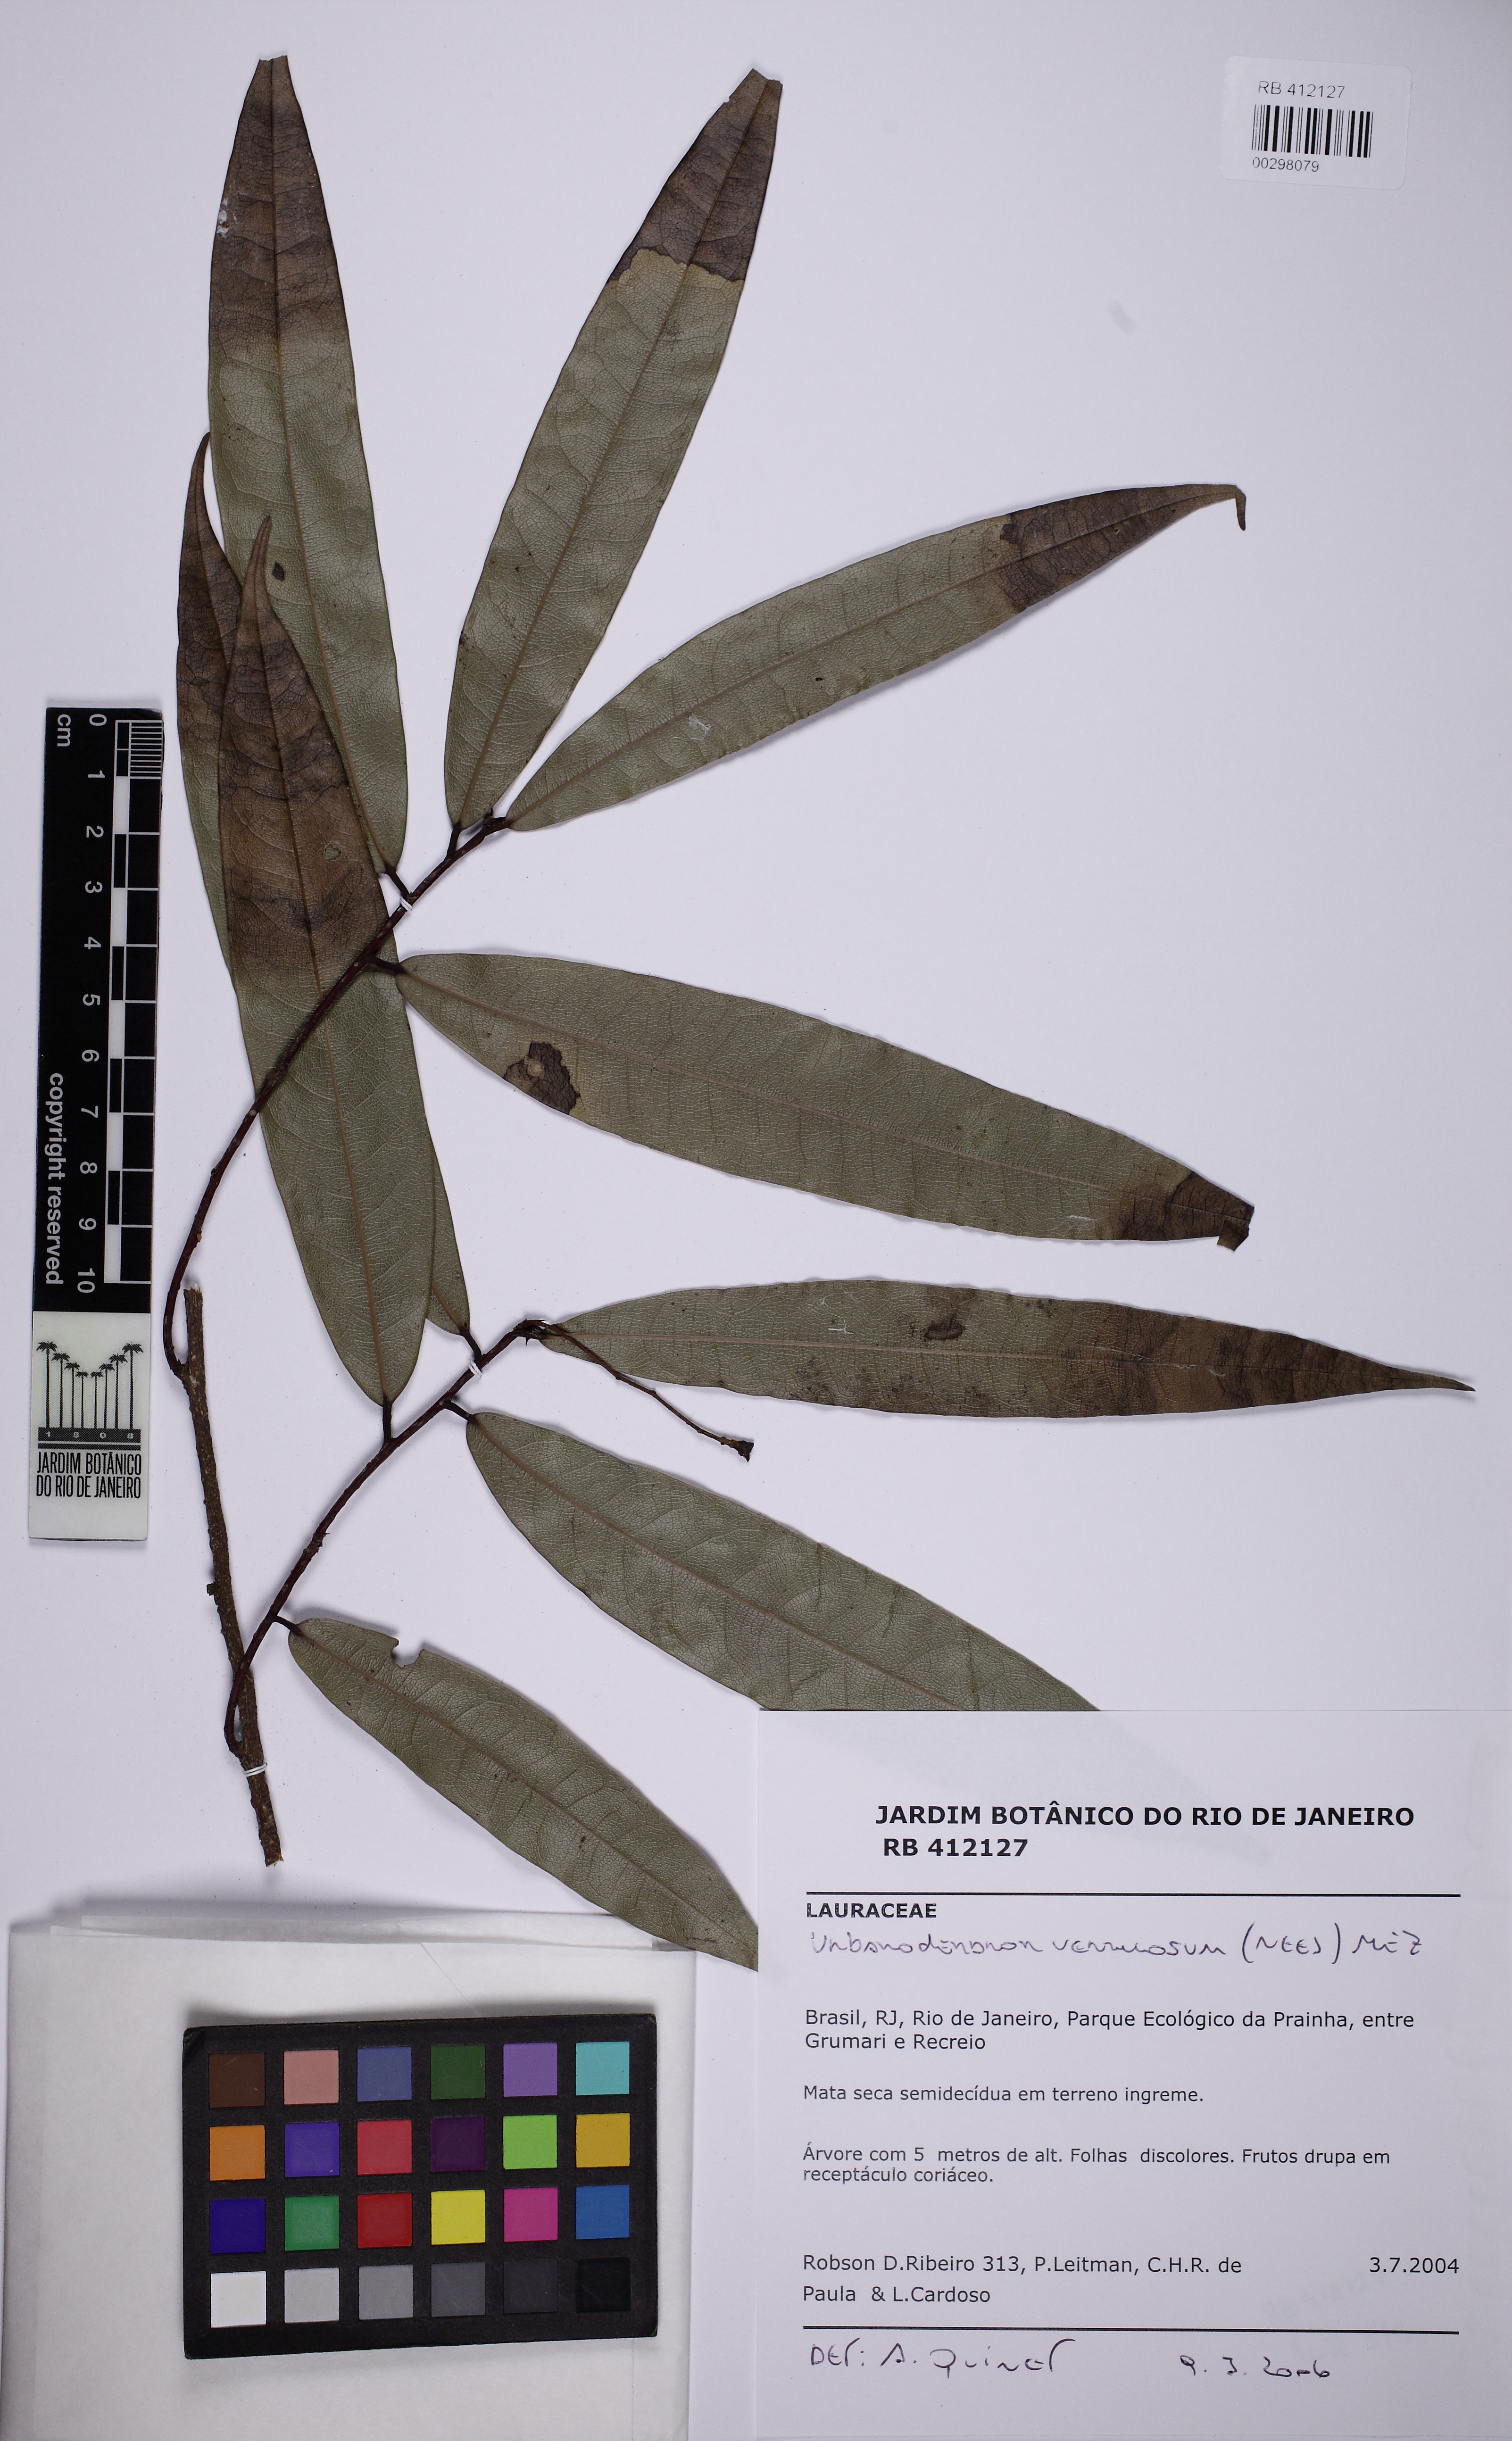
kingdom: Plantae
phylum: Tracheophyta
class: Magnoliopsida
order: Laurales
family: Lauraceae
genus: Urbanodendron
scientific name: Urbanodendron verrucosum
